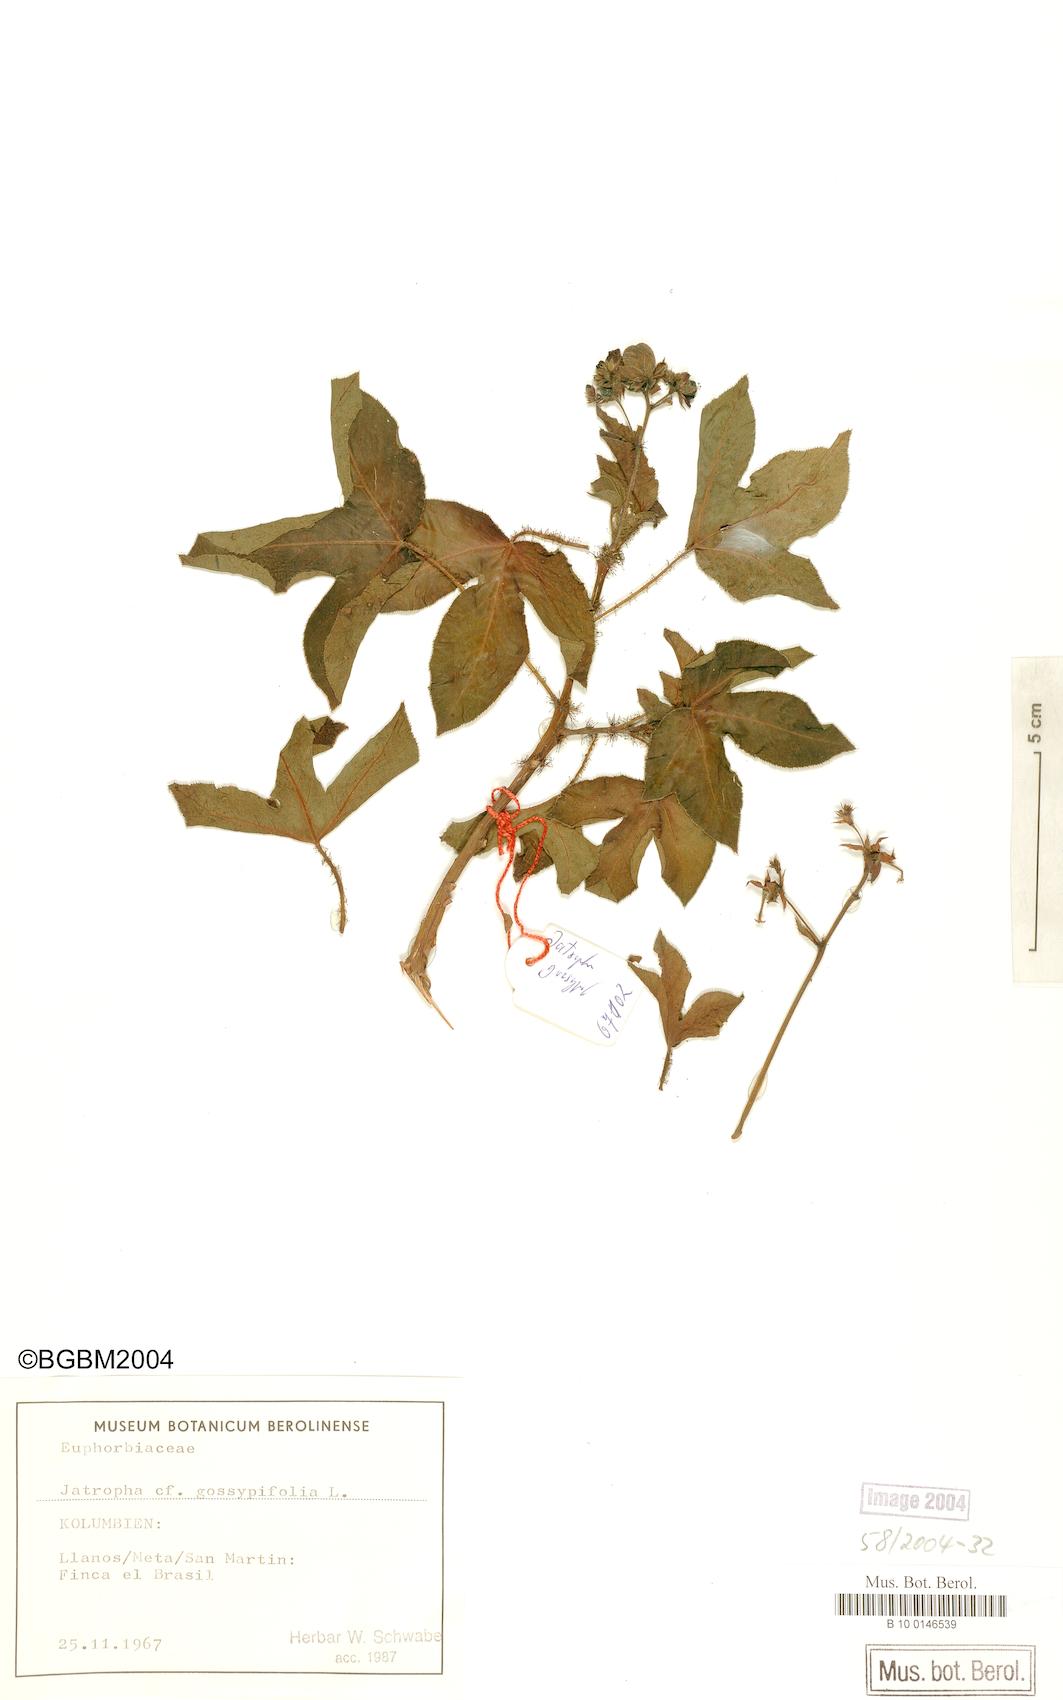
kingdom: Plantae
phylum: Tracheophyta
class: Magnoliopsida
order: Malpighiales
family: Euphorbiaceae
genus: Jatropha
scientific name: Jatropha gossypiifolia
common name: Bellyache bush
